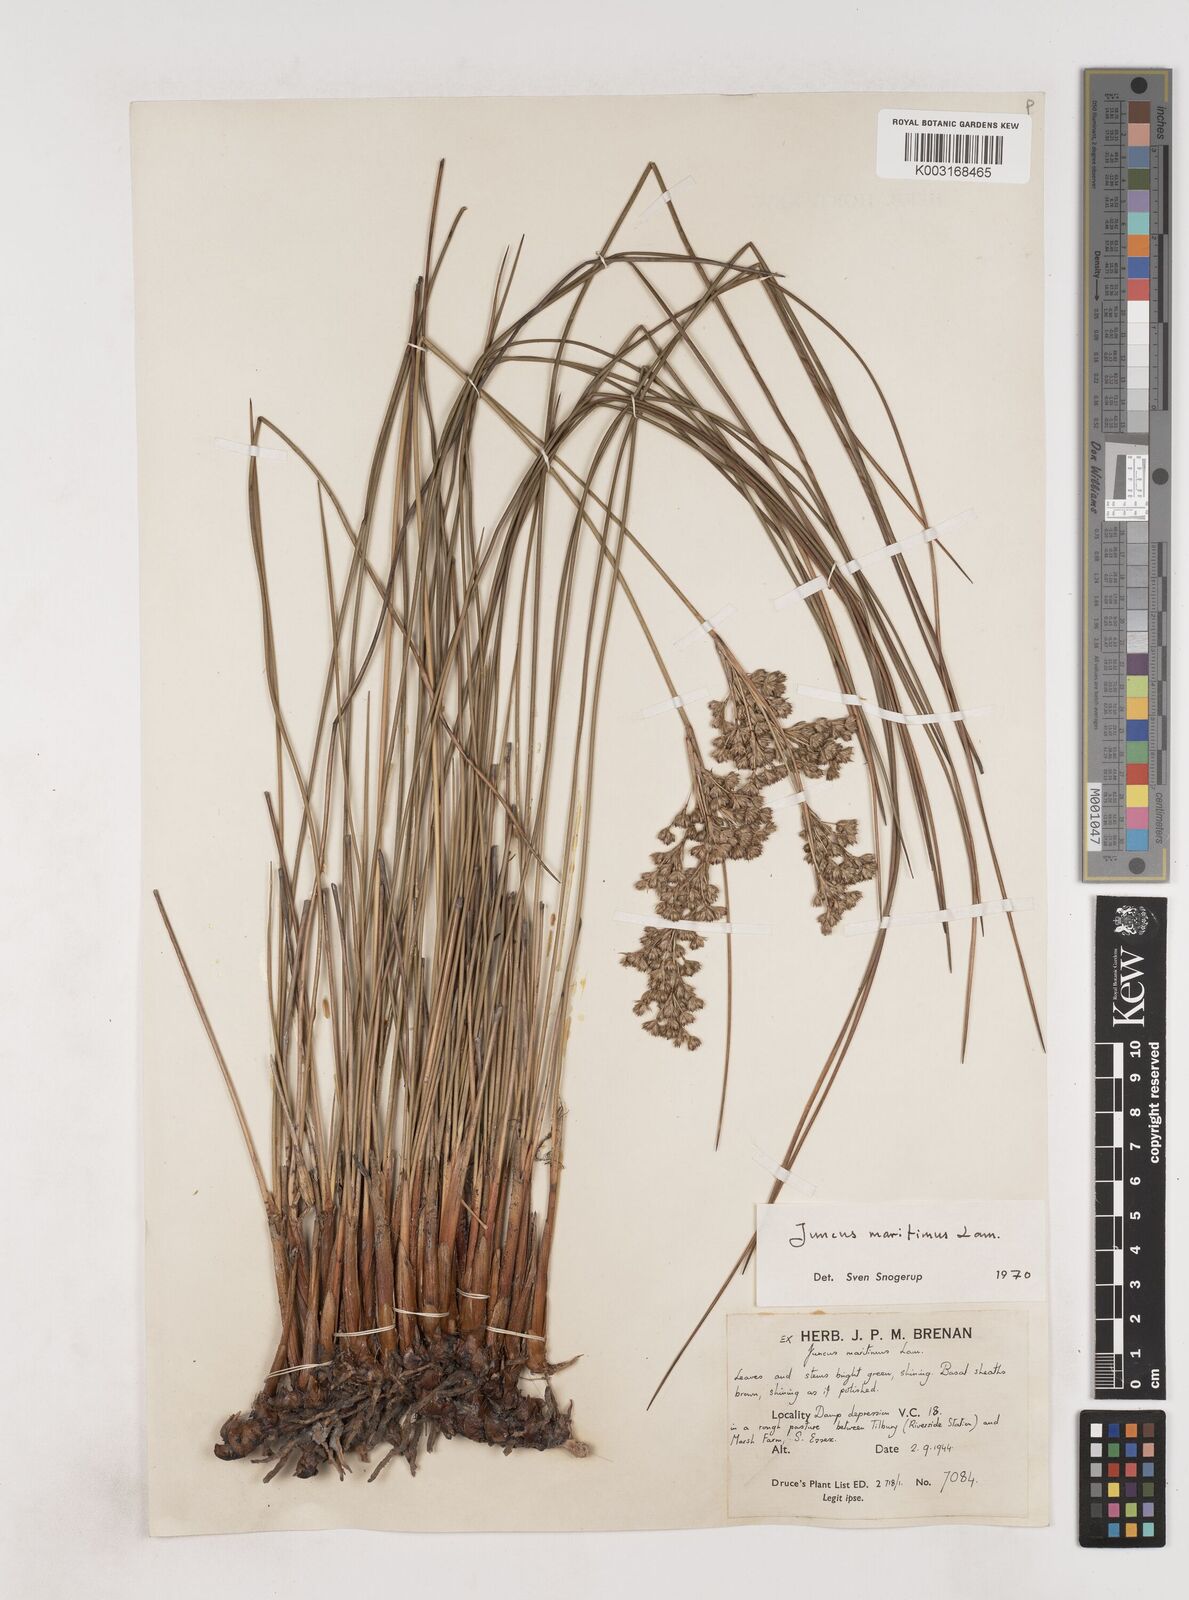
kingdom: Plantae
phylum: Tracheophyta
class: Liliopsida
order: Poales
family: Juncaceae
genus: Juncus
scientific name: Juncus maritimus
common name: Sea rush
